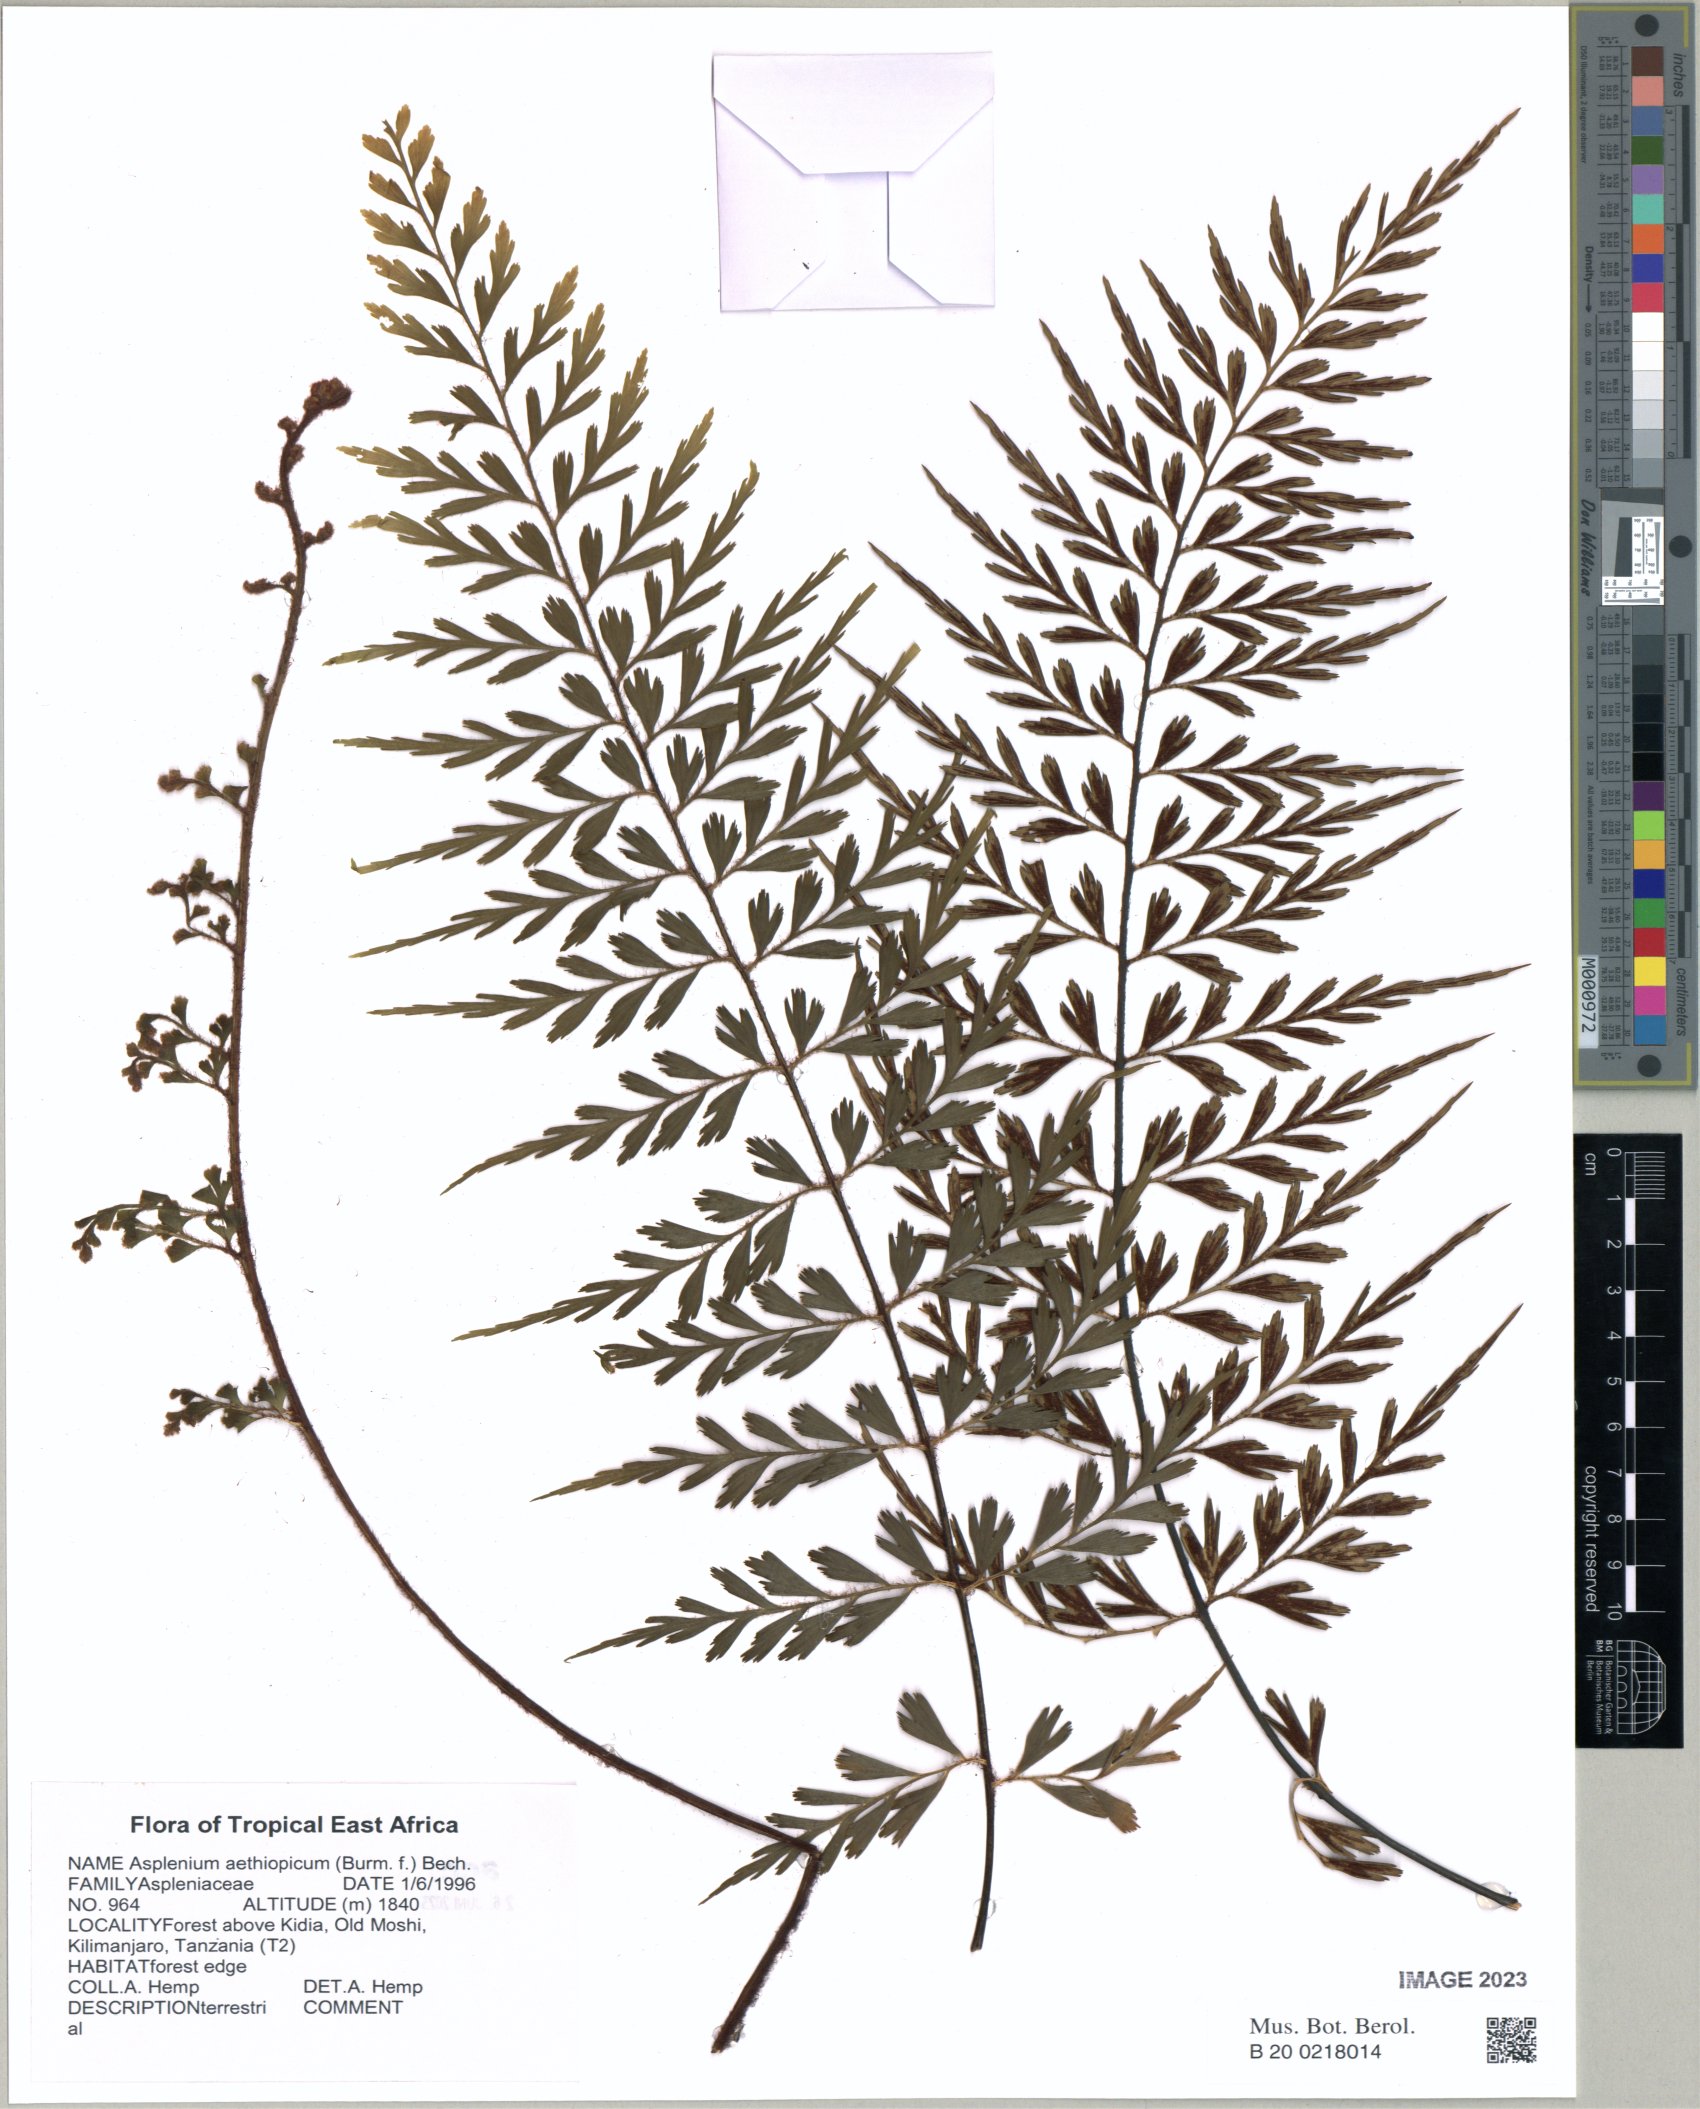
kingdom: Plantae
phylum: Tracheophyta
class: Polypodiopsida
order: Polypodiales
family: Aspleniaceae
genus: Asplenium
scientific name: Asplenium aethiopicum
